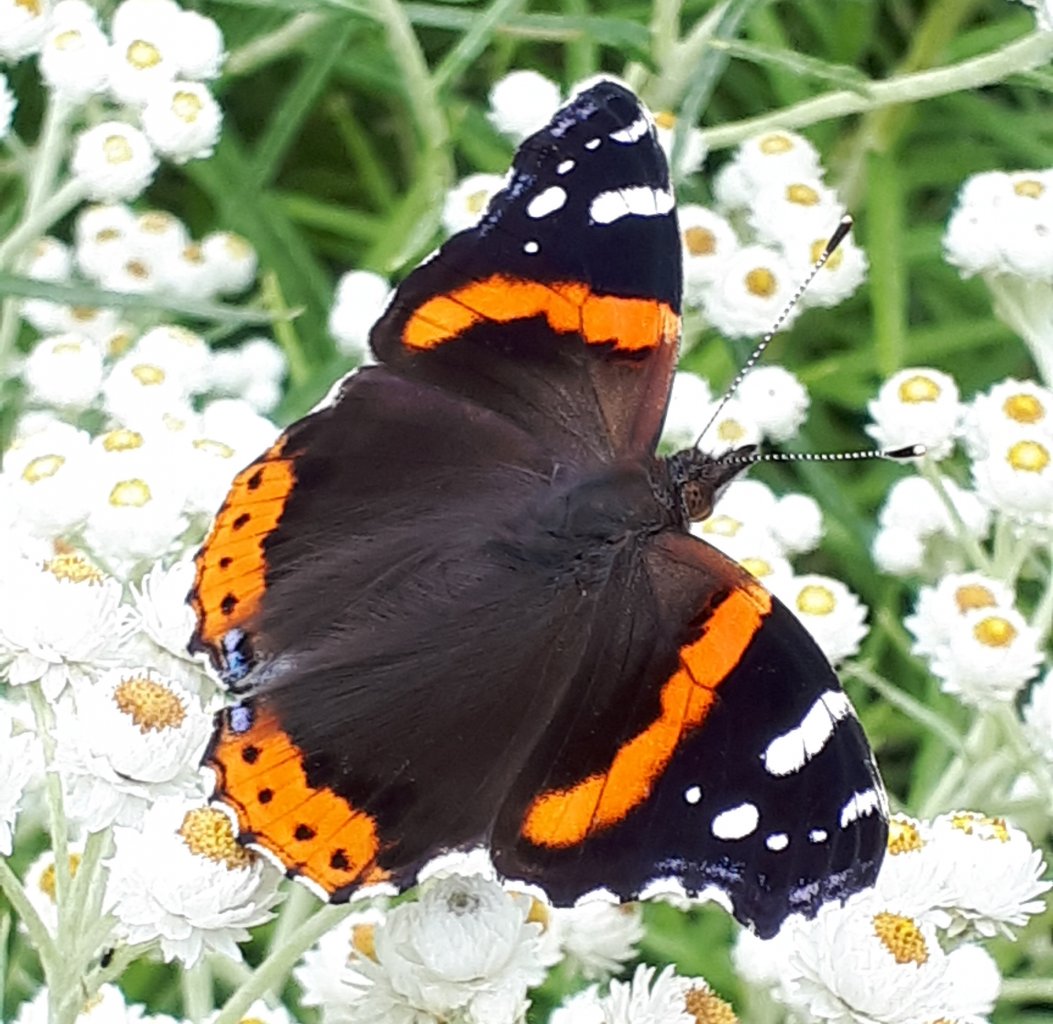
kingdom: Animalia
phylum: Arthropoda
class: Insecta
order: Lepidoptera
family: Nymphalidae
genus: Vanessa
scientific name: Vanessa atalanta
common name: Red Admiral
